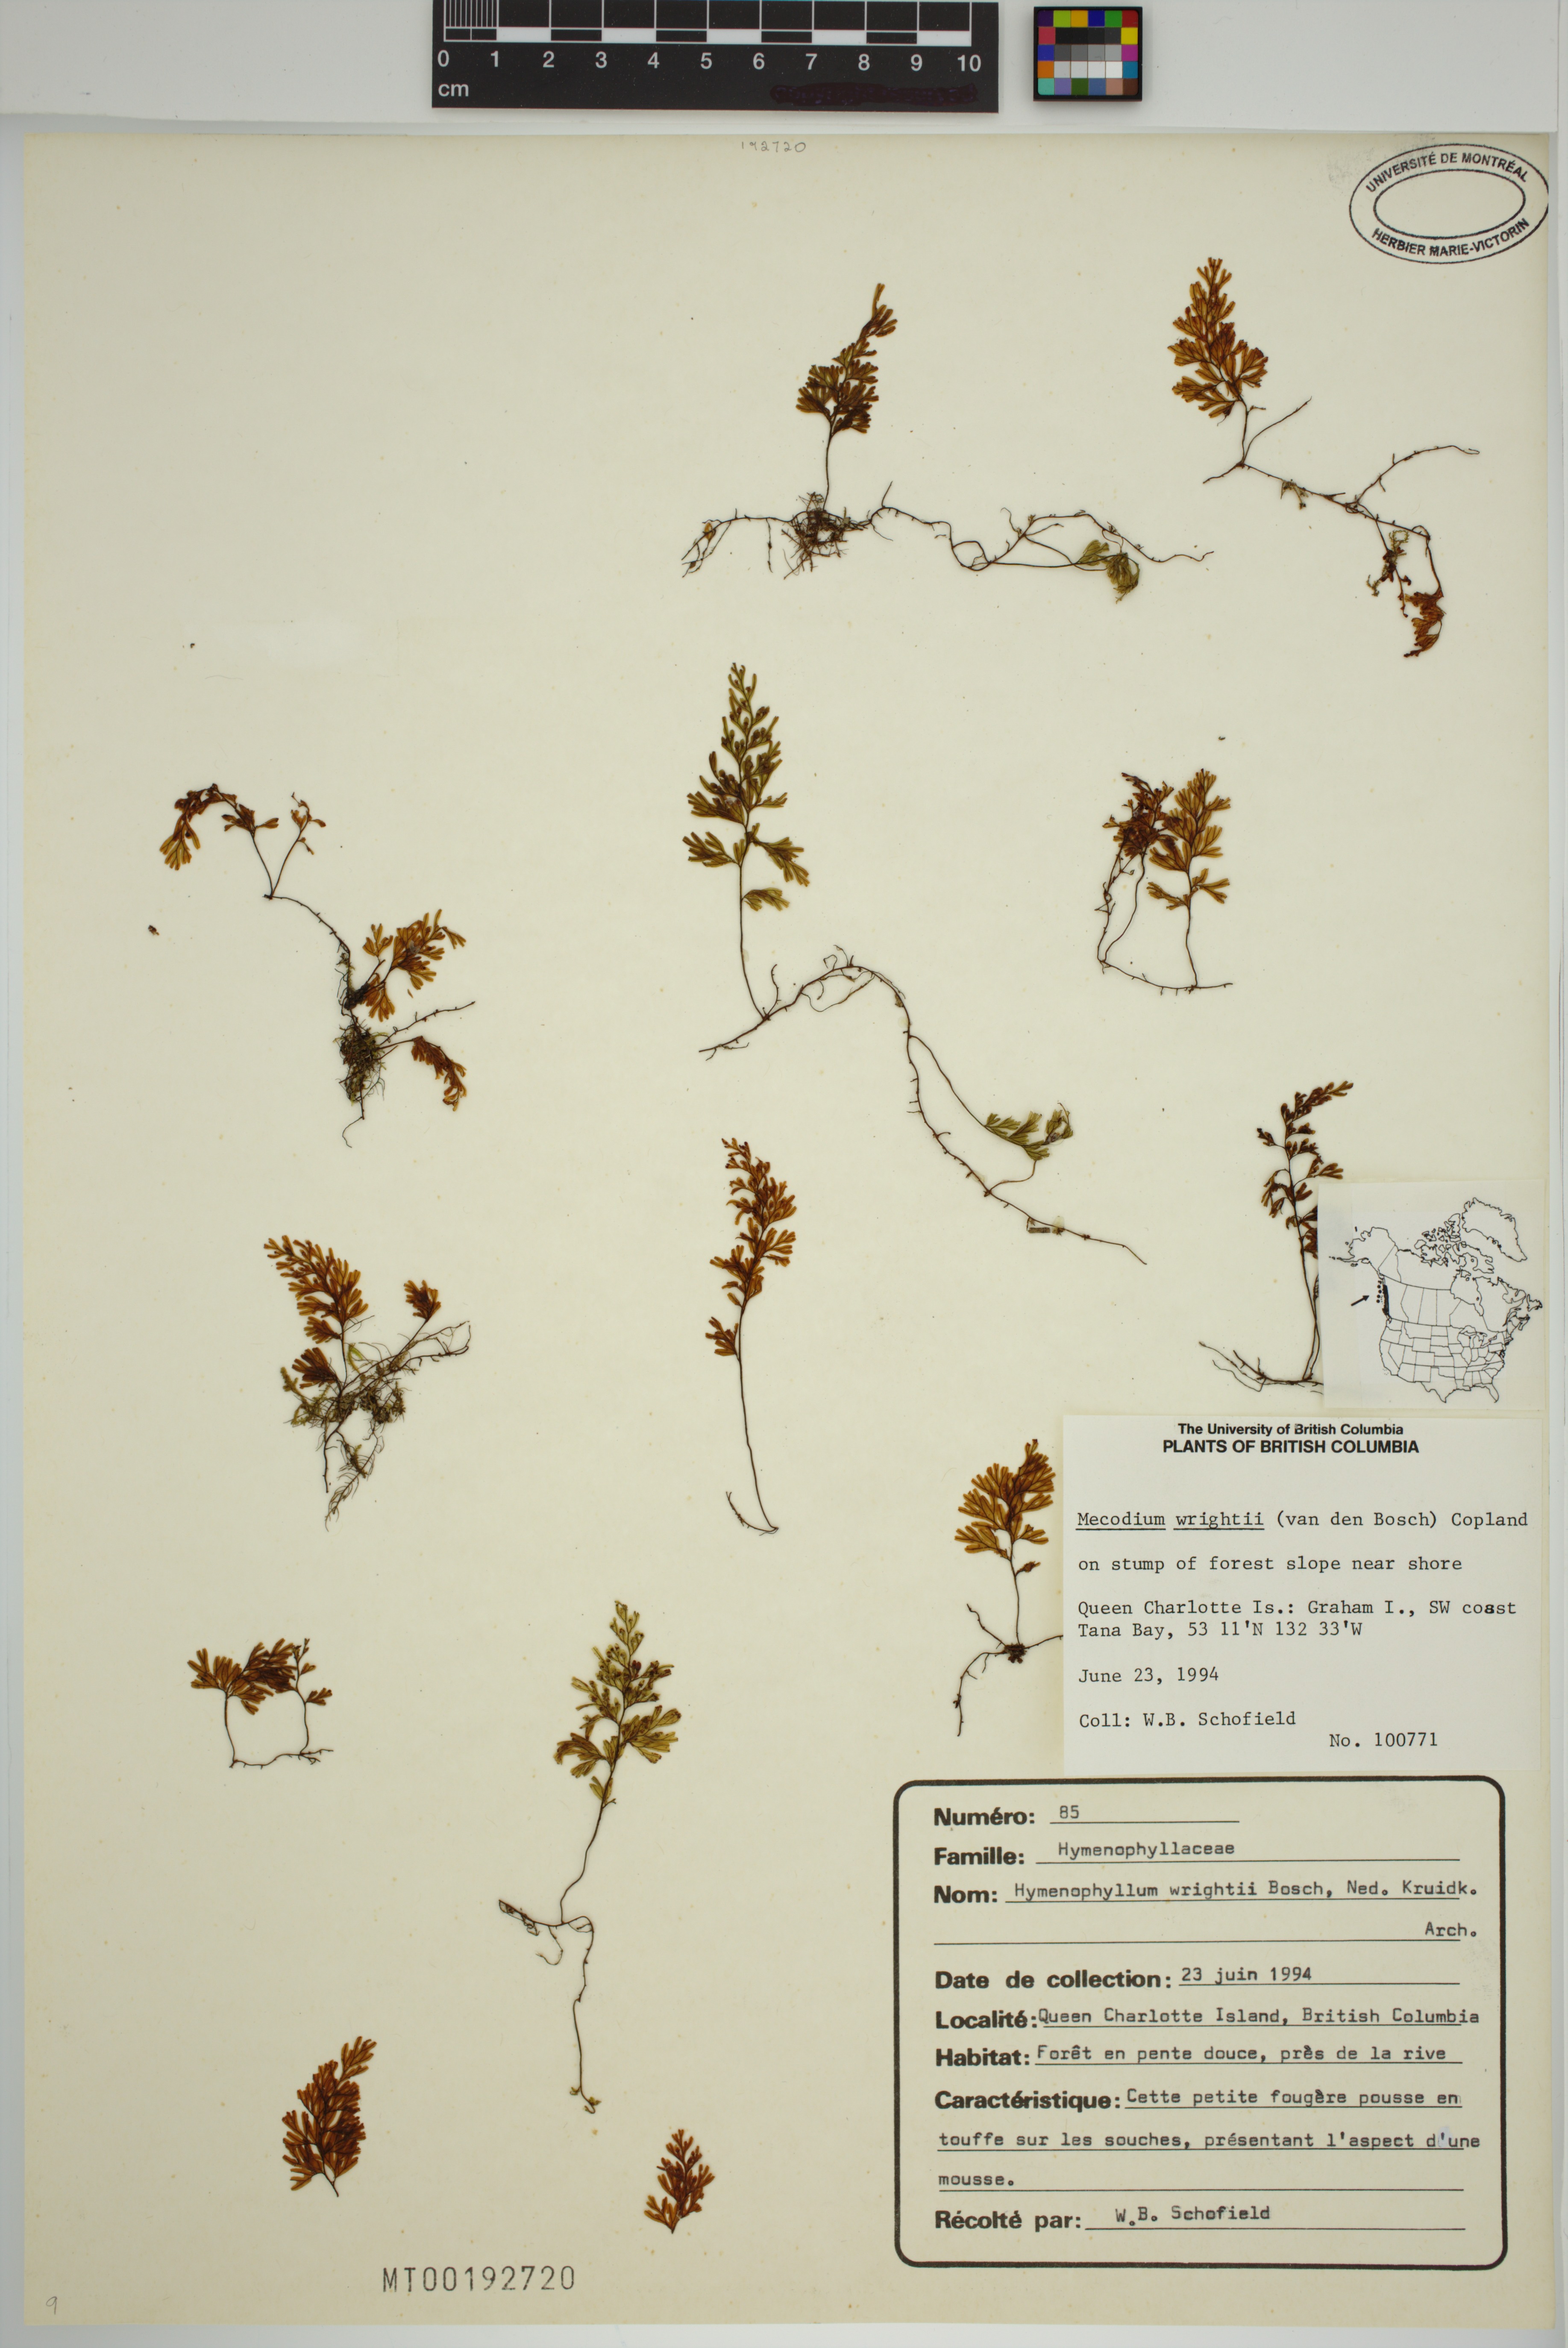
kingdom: Plantae
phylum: Tracheophyta
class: Polypodiopsida
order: Hymenophyllales
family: Hymenophyllaceae
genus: Hymenophyllum
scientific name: Hymenophyllum wrightii
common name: Wright's filmy fern
